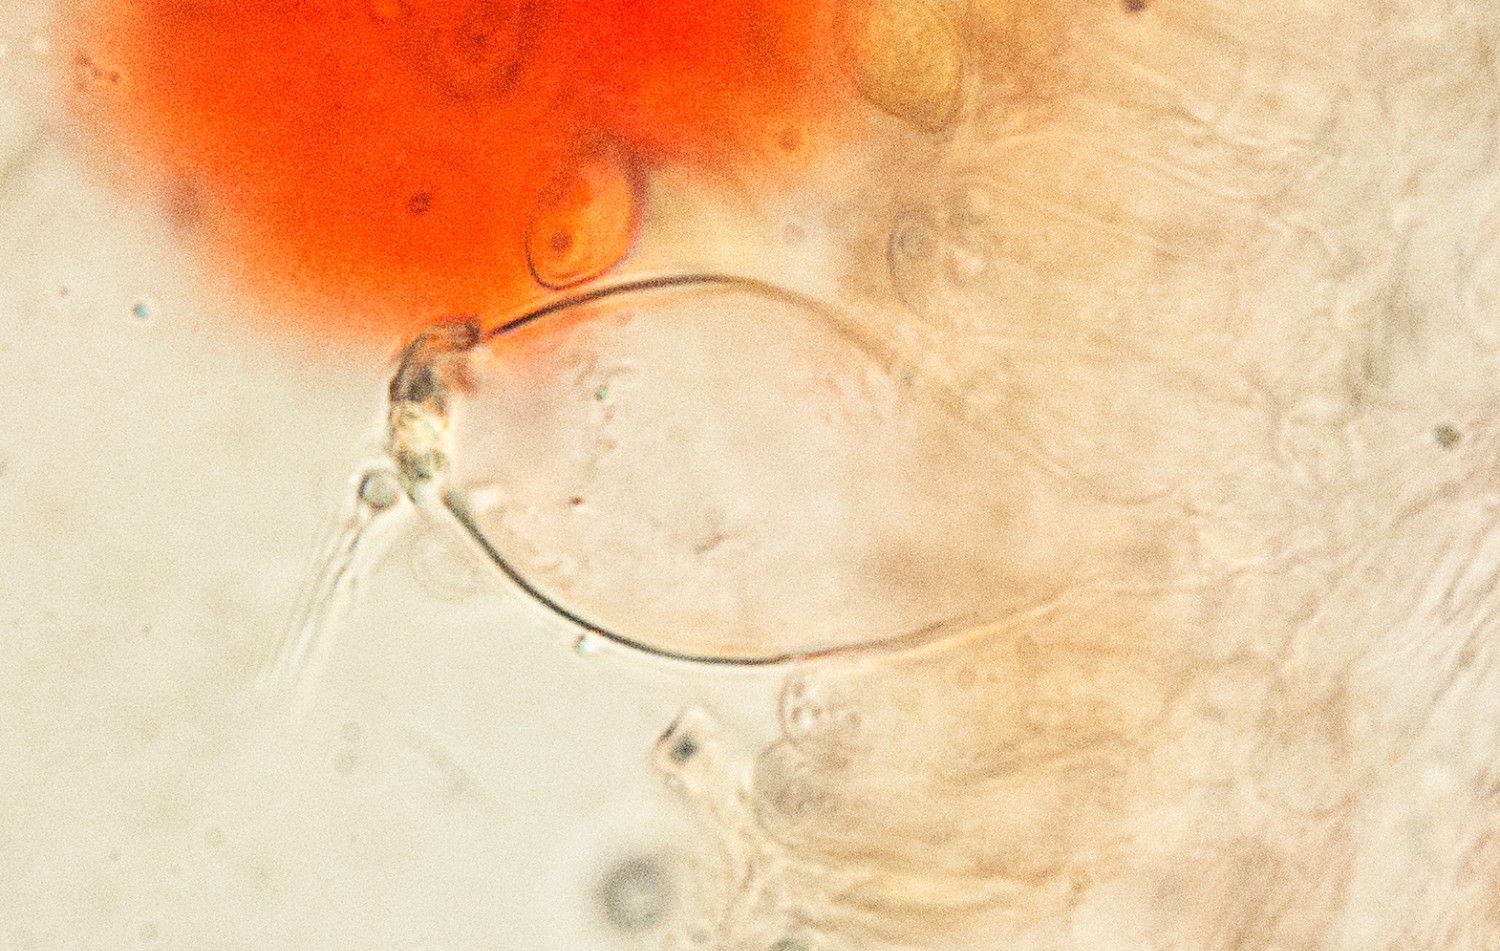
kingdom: Fungi
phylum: Basidiomycota
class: Agaricomycetes
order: Agaricales
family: Inocybaceae
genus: Inocybe
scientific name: Inocybe appendiculata
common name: tandet trævlhat
